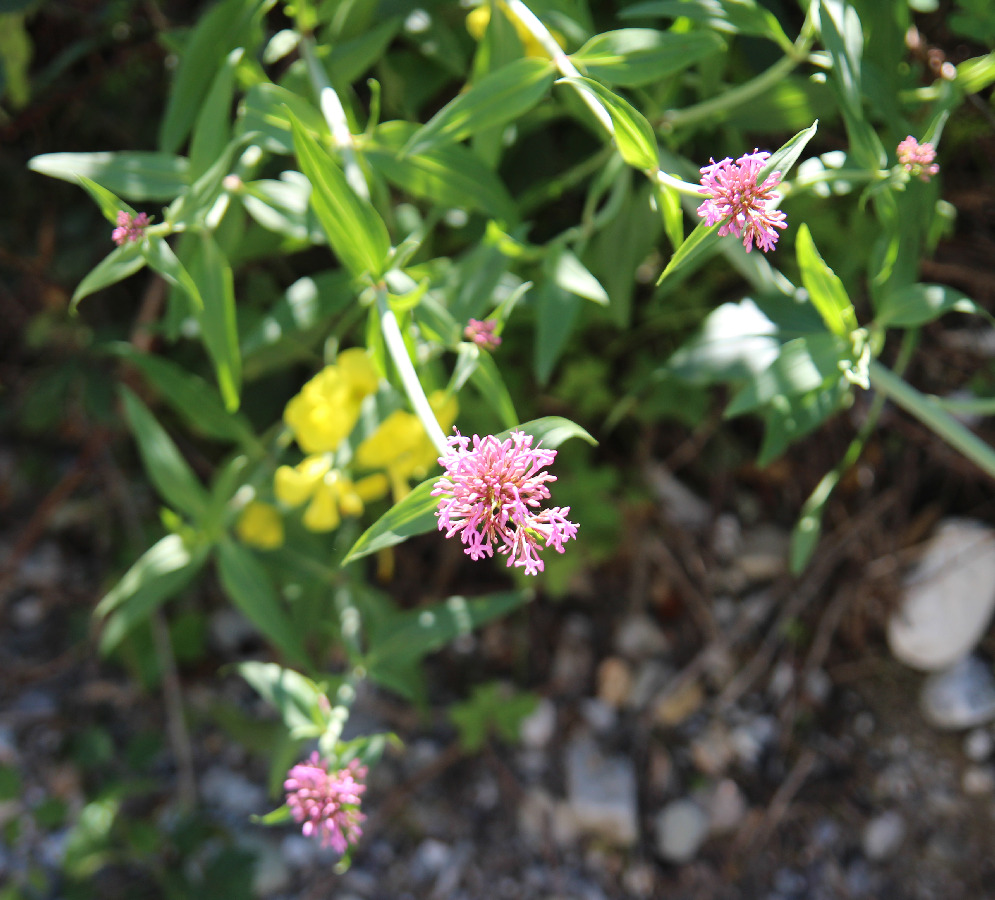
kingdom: Plantae
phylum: Tracheophyta
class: Magnoliopsida
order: Dipsacales
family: Caprifoliaceae
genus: Centranthus
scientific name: Centranthus ruber
